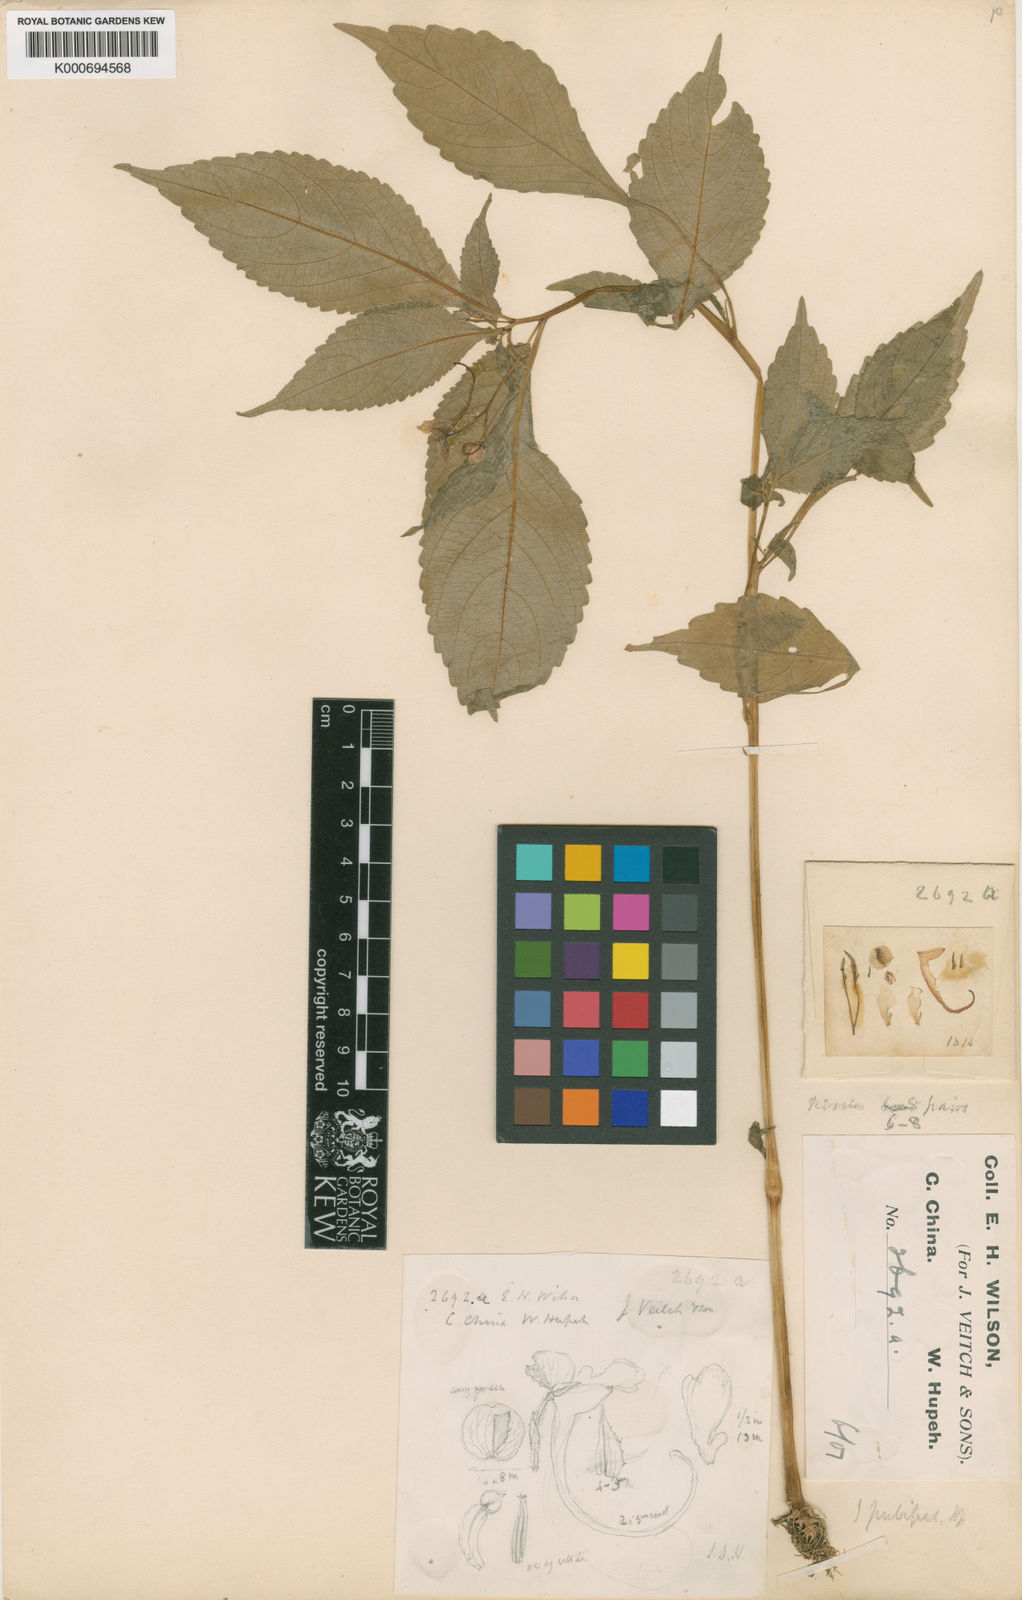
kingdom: Plantae
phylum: Tracheophyta
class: Magnoliopsida
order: Ericales
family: Balsaminaceae
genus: Impatiens
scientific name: Impatiens
